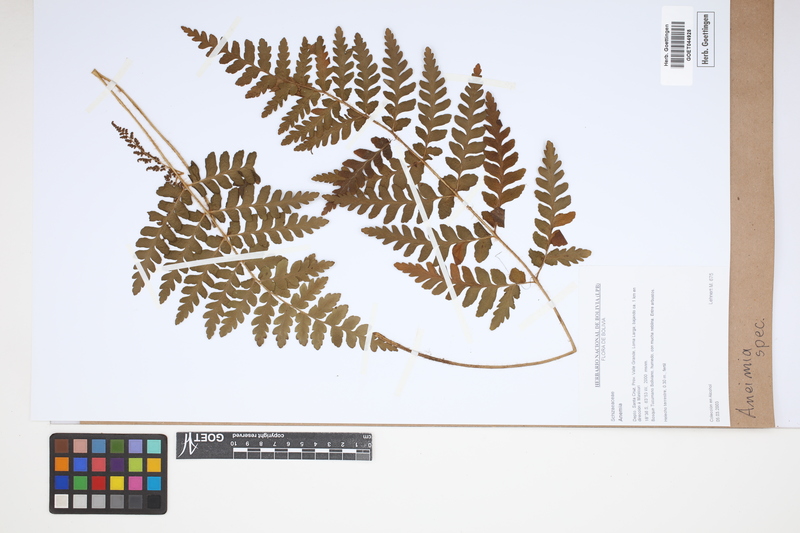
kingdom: Plantae
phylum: Tracheophyta
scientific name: Tracheophyta
